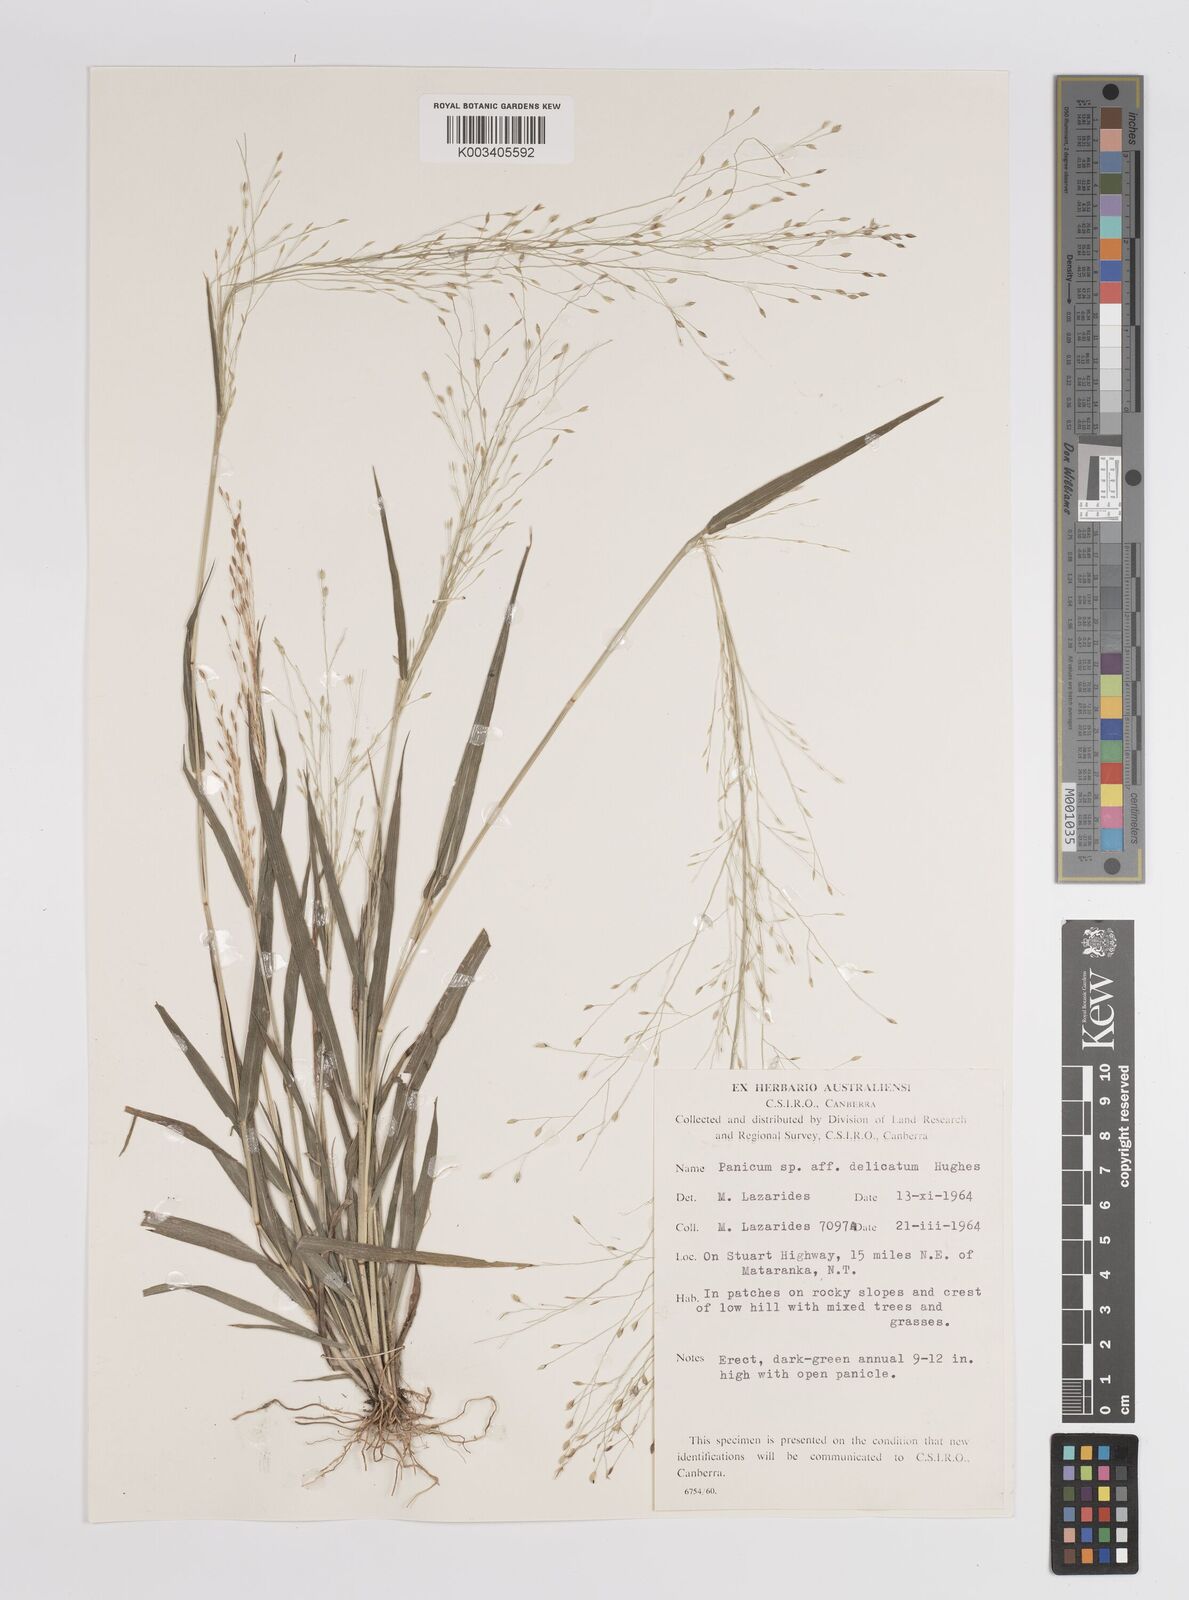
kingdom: Plantae
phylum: Tracheophyta
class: Liliopsida
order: Poales
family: Poaceae
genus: Panicum
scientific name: Panicum
